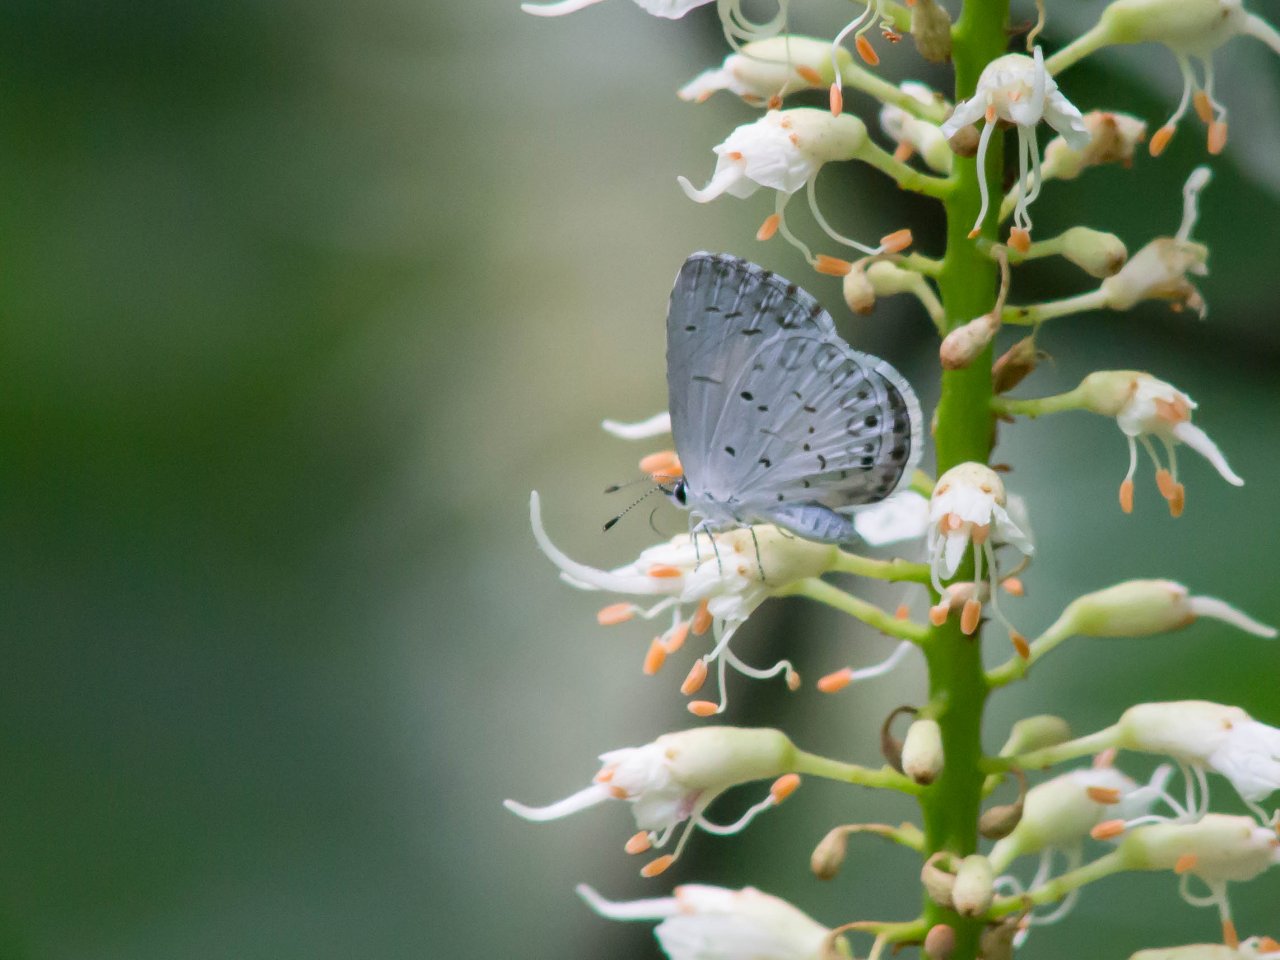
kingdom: Animalia
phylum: Arthropoda
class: Insecta
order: Lepidoptera
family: Lycaenidae
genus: Cyaniris
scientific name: Cyaniris neglecta
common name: Summer Azure
